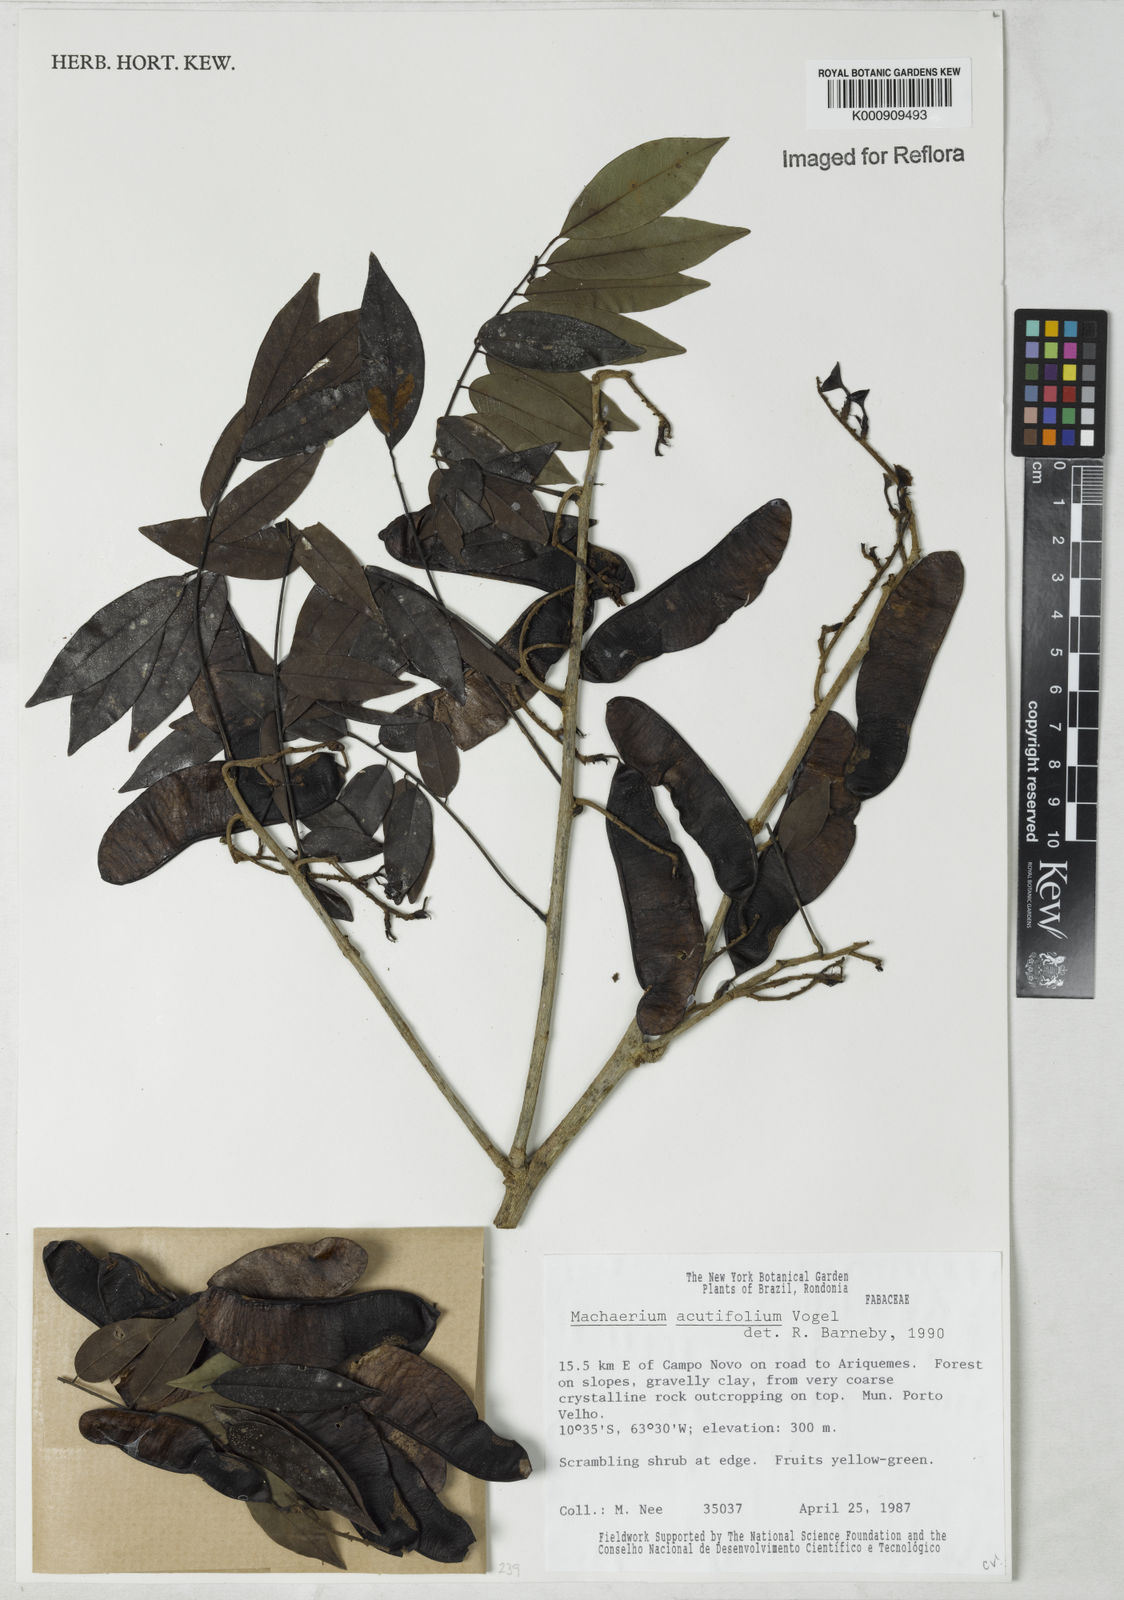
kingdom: Plantae
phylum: Tracheophyta
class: Magnoliopsida
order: Fabales
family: Fabaceae
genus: Machaerium
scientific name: Machaerium acutifolium
